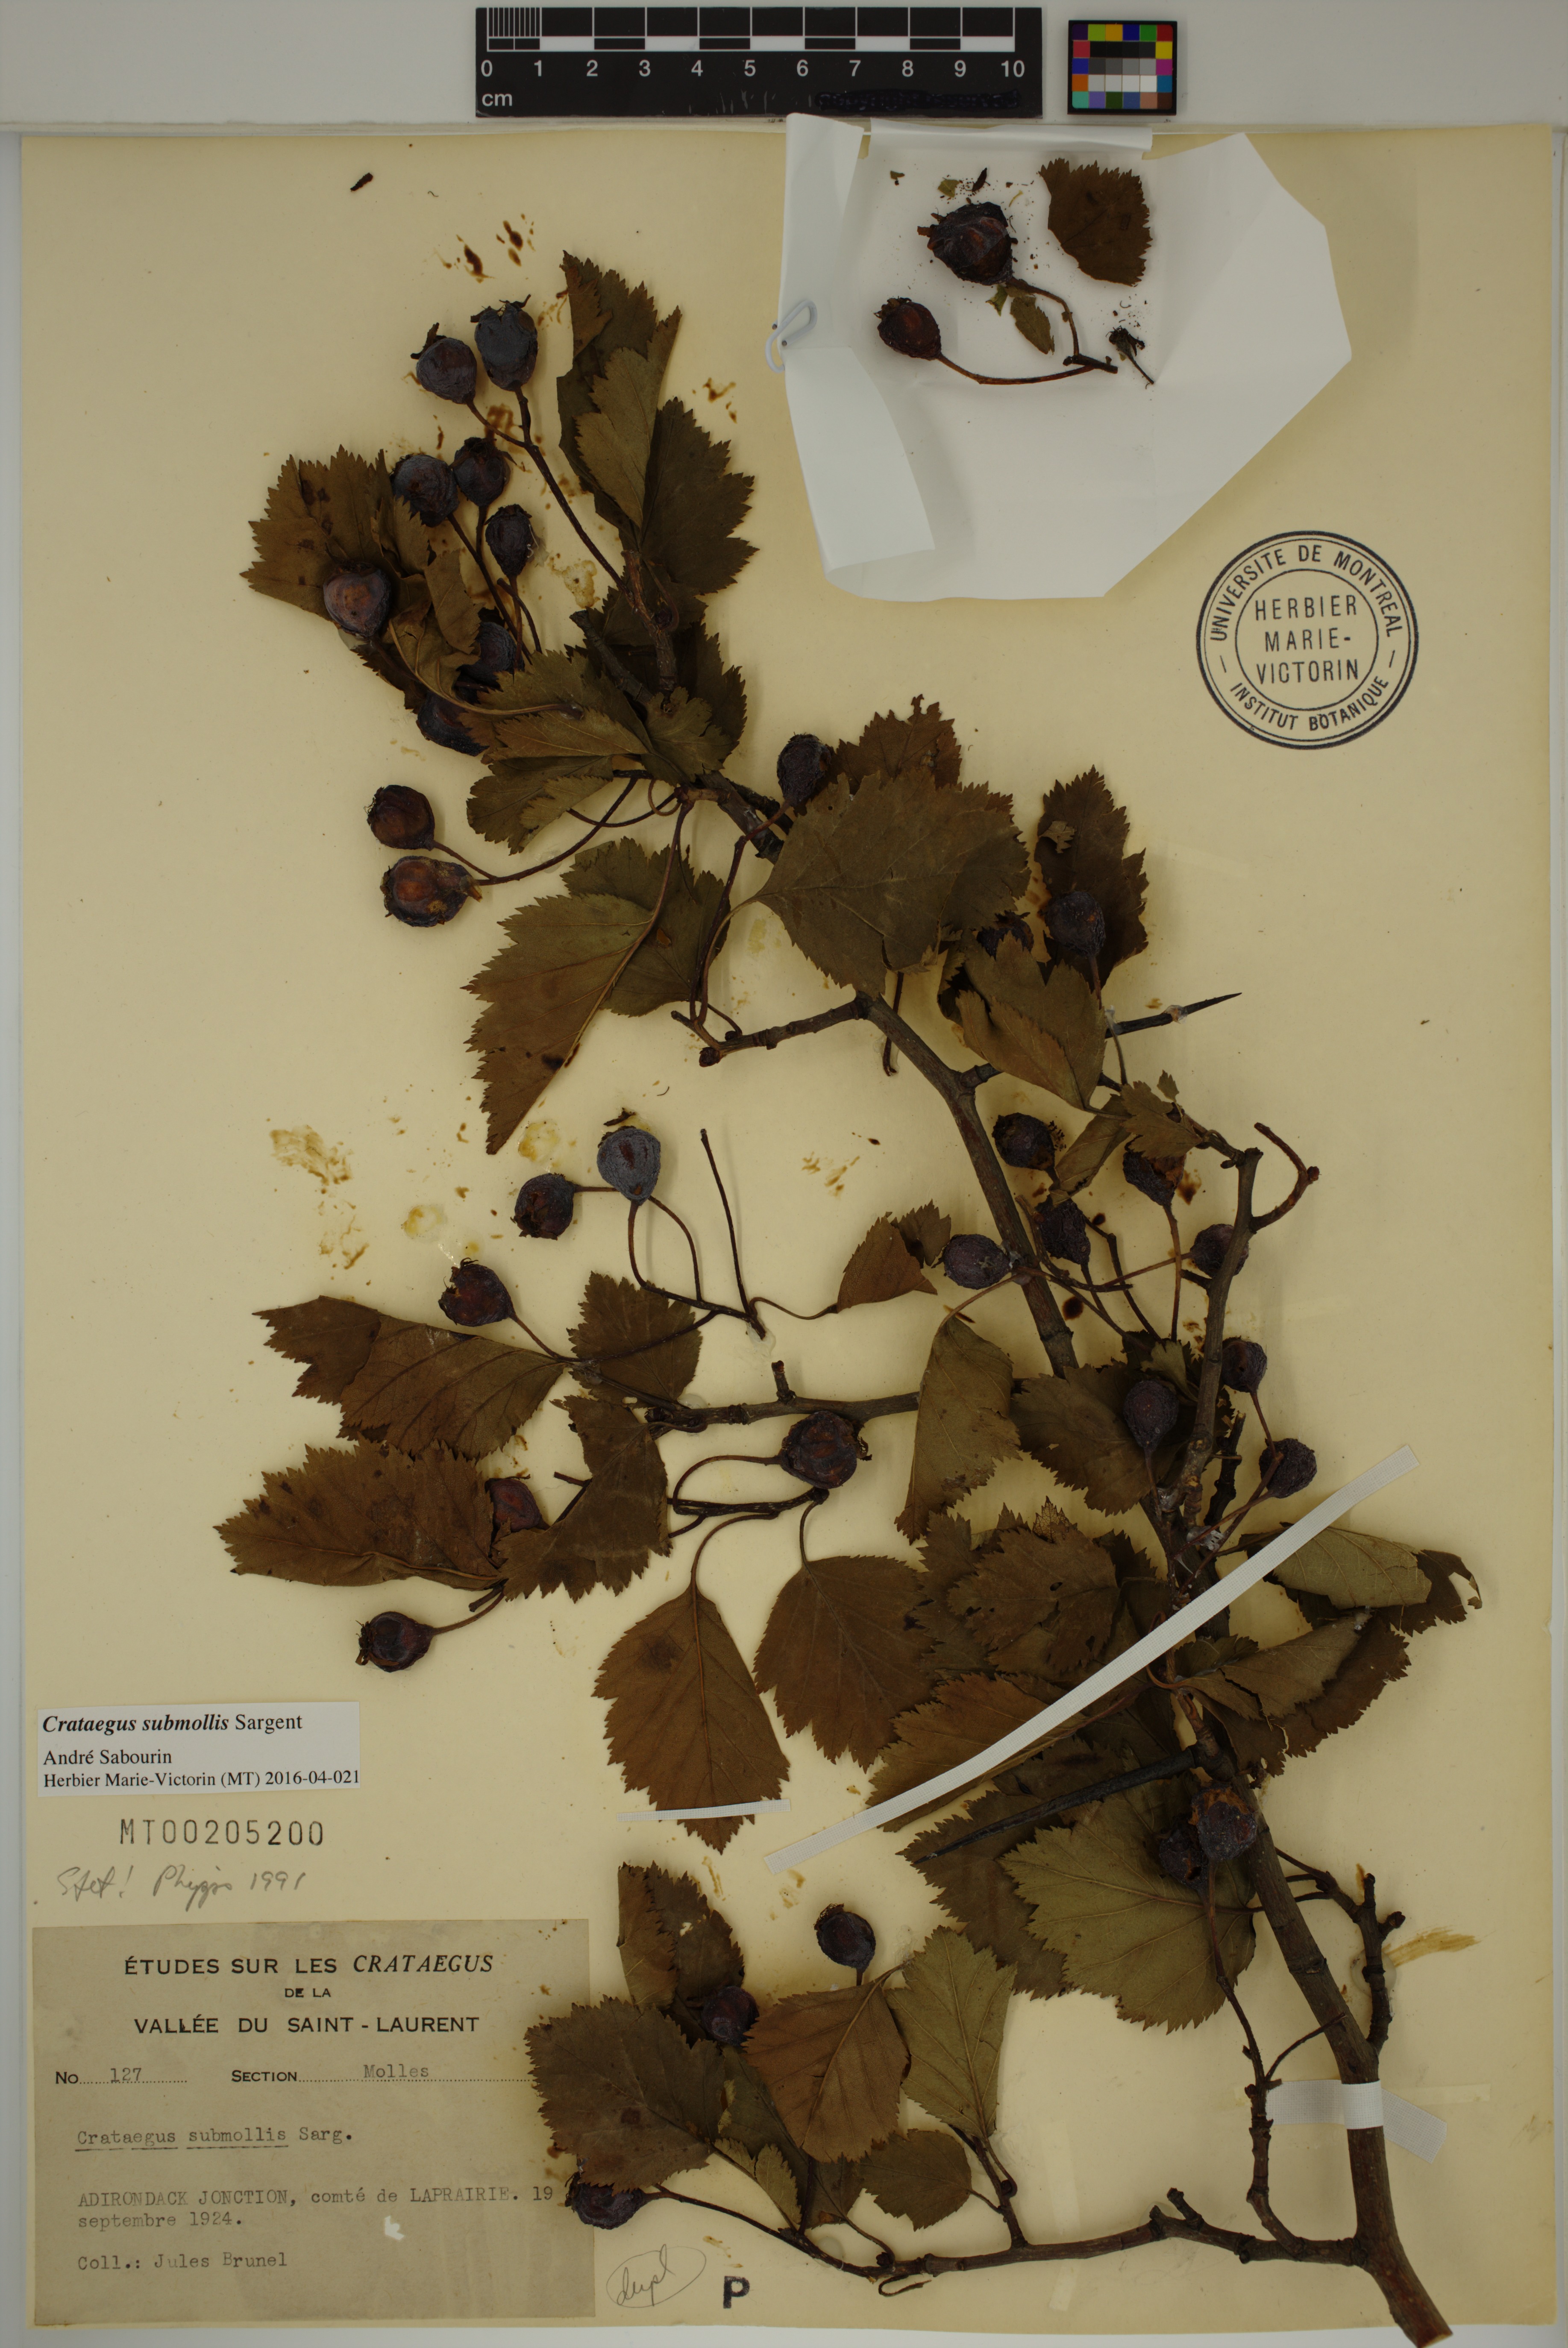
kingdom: Plantae
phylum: Tracheophyta
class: Magnoliopsida
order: Rosales
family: Rosaceae
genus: Crataegus
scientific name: Crataegus submollis
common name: Hairy cockspurthorn
